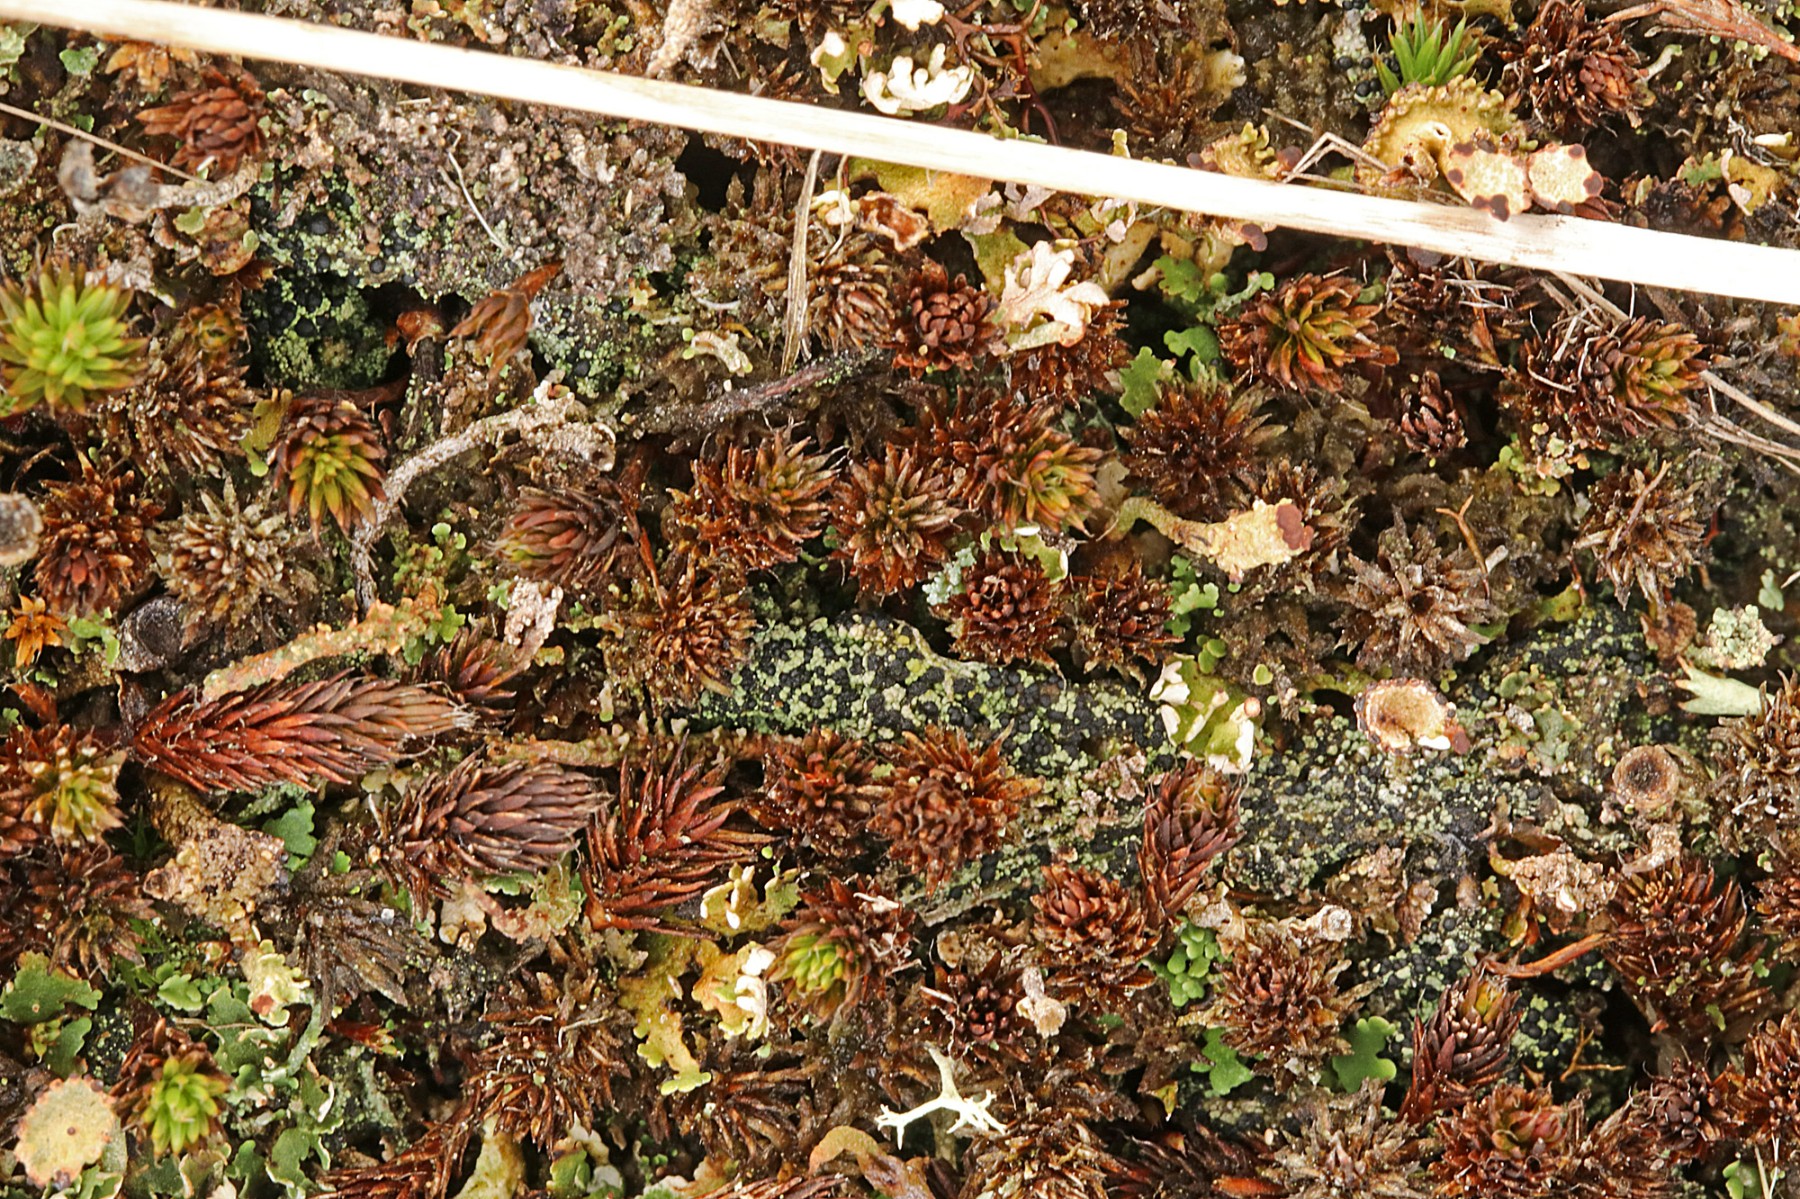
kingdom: Fungi
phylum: Ascomycota
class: Lecanoromycetes
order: Lecanorales
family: Byssolomataceae
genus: Micarea
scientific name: Micarea lignaria
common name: tørve-knaplav
